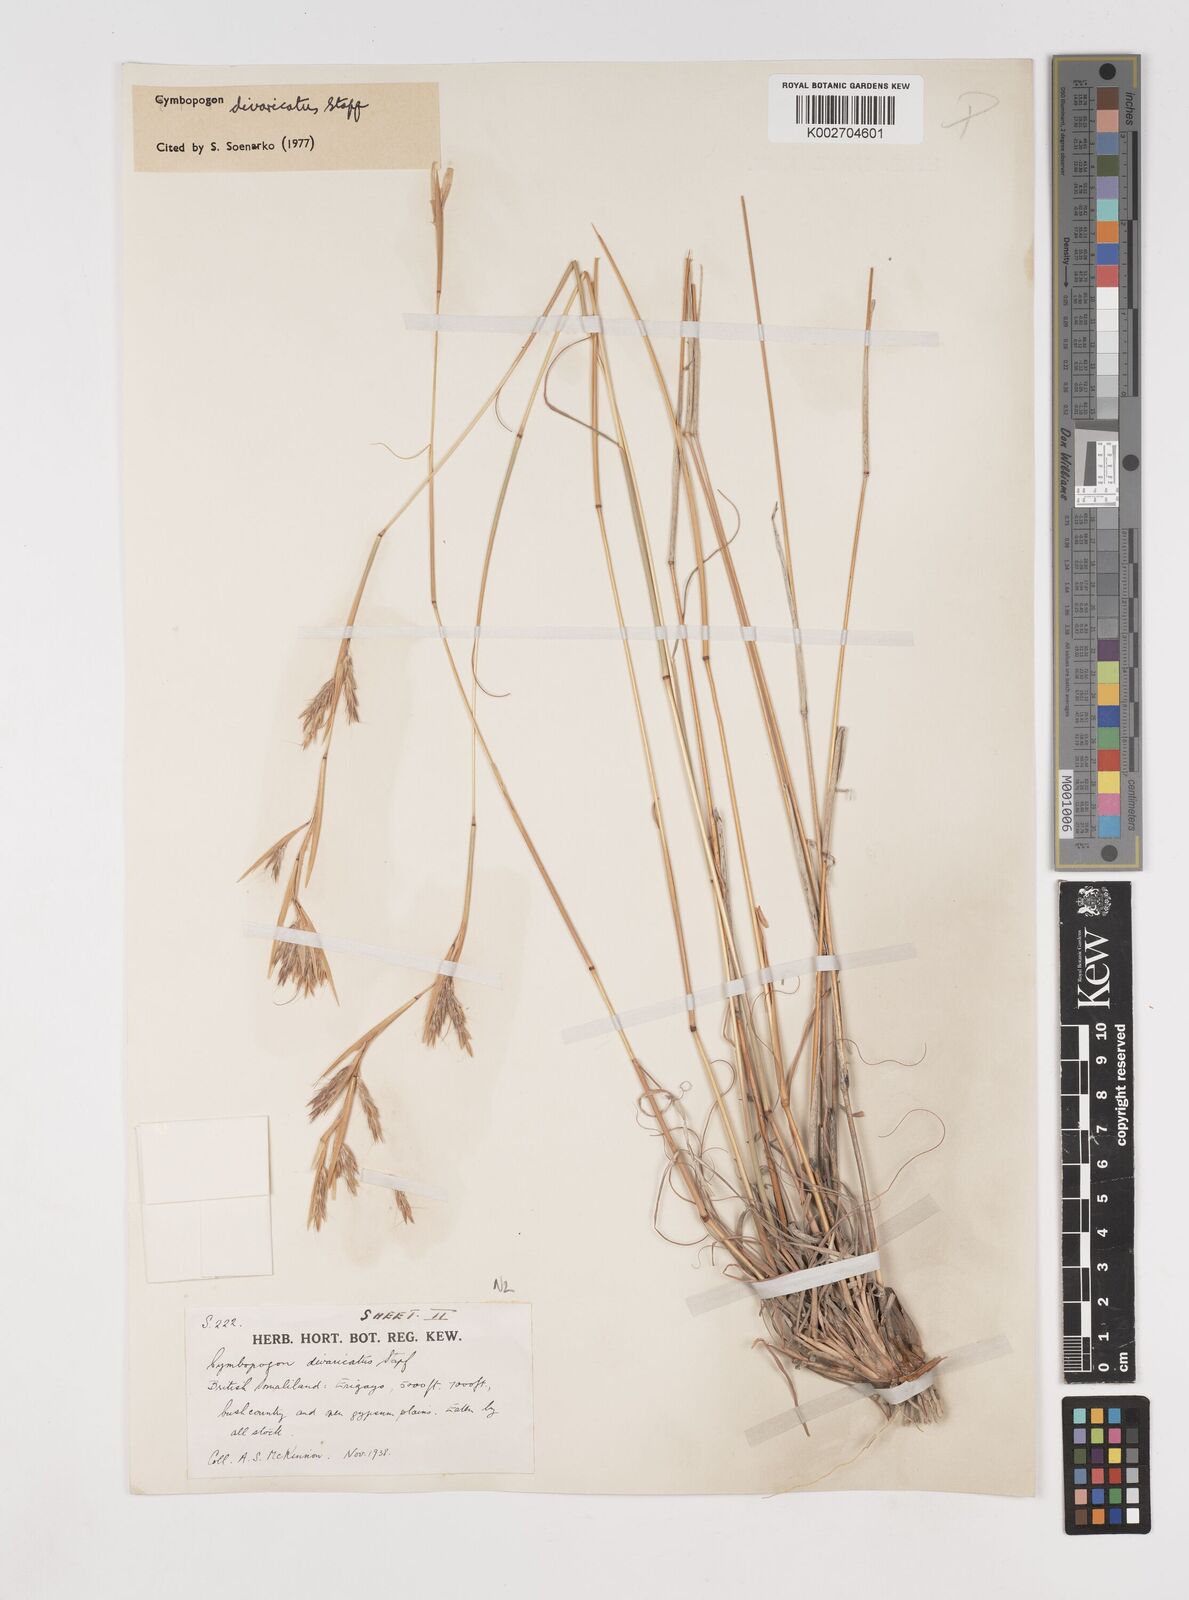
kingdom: Plantae
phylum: Tracheophyta
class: Liliopsida
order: Poales
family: Poaceae
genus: Cymbopogon
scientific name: Cymbopogon commutatus
